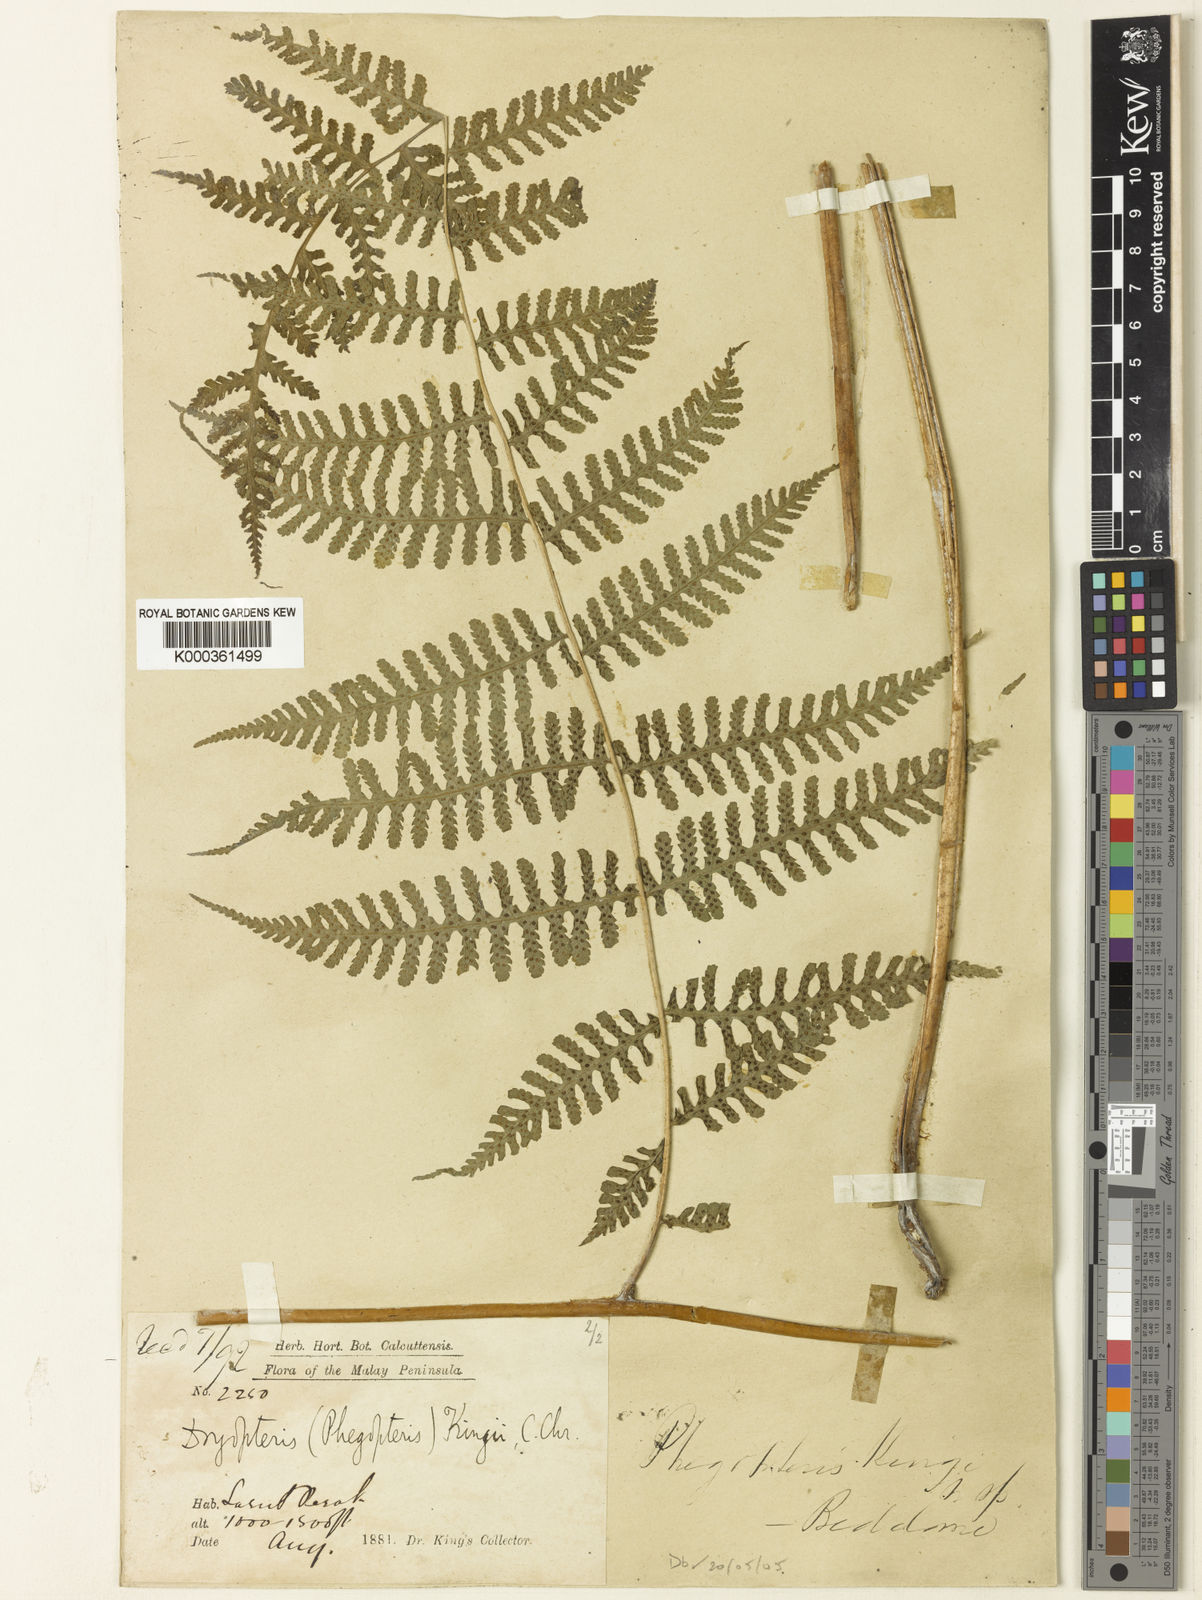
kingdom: Plantae
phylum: Tracheophyta
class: Polypodiopsida
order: Polypodiales
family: Athyriaceae
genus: Deparia
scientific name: Deparia boryana
